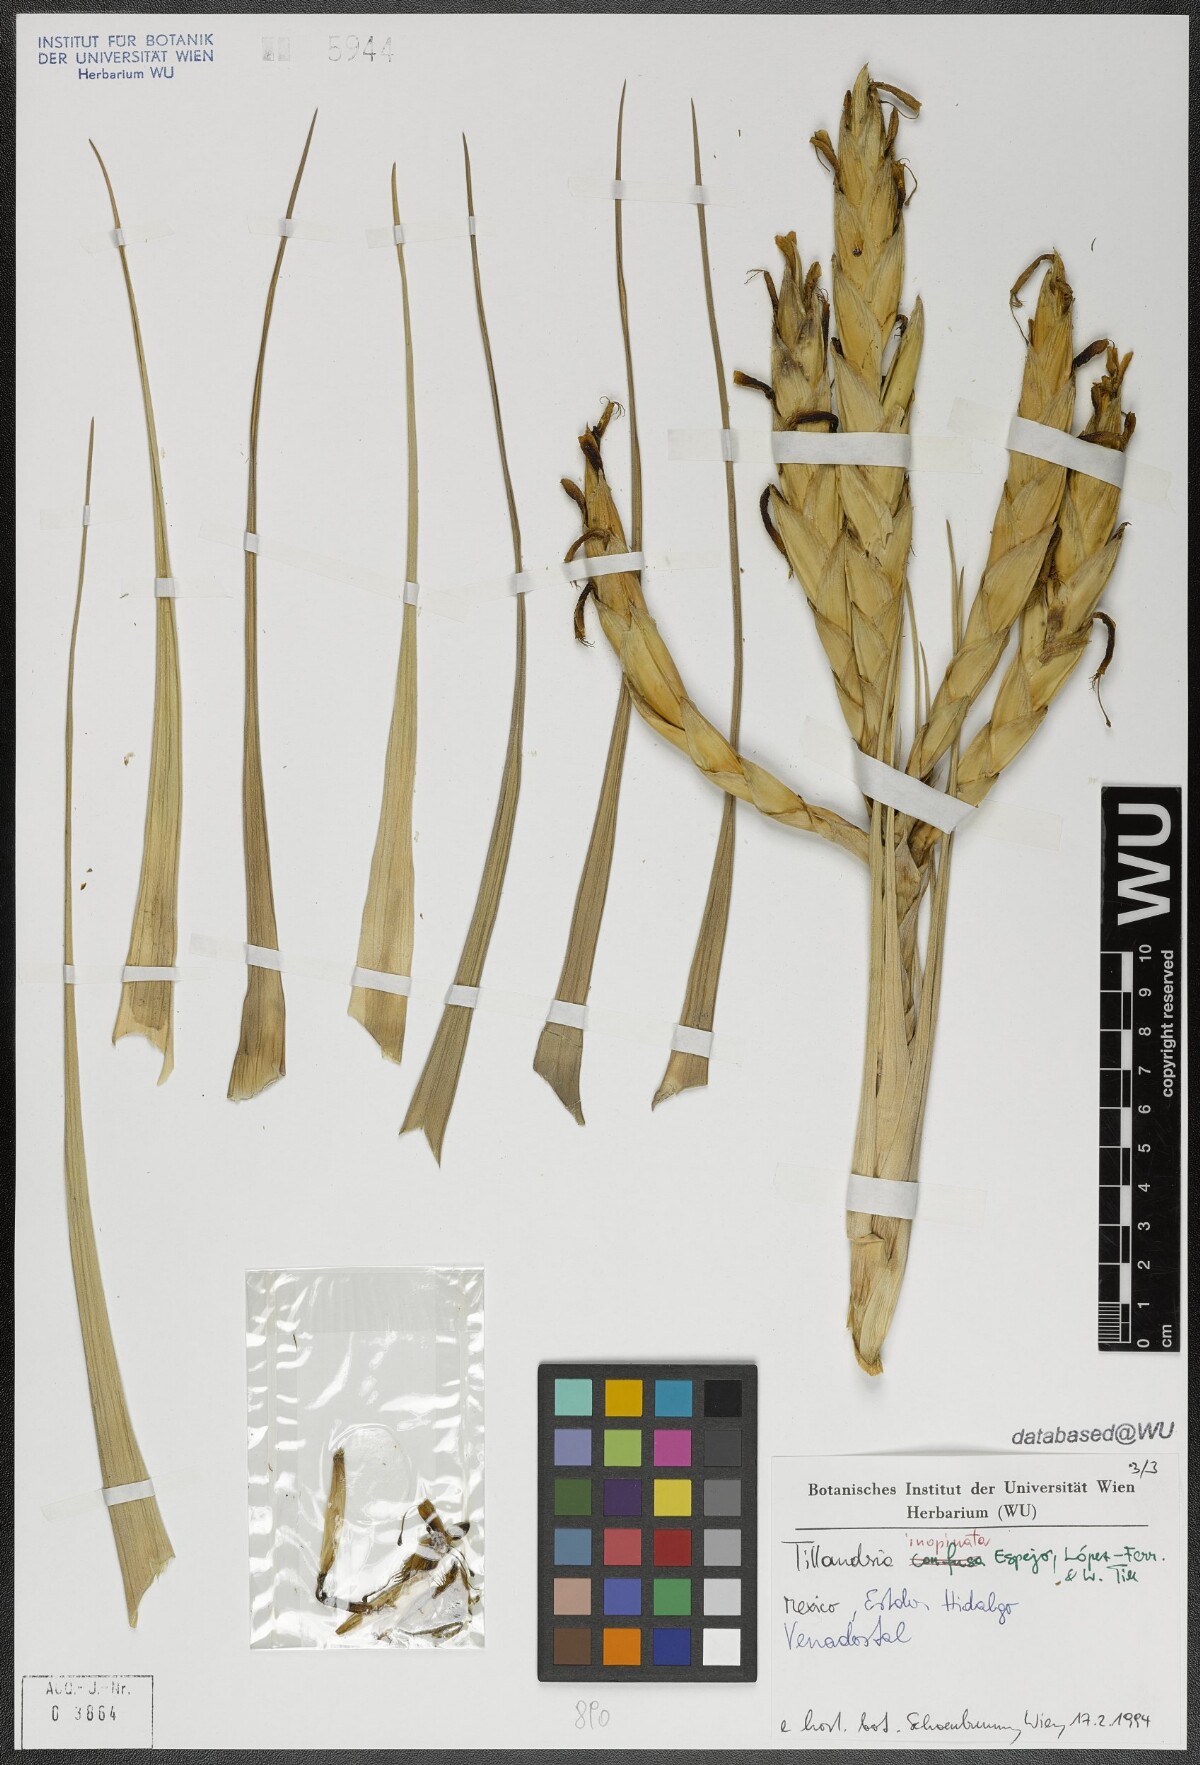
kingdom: Plantae
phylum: Tracheophyta
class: Liliopsida
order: Poales
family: Bromeliaceae
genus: Tillandsia
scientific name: Tillandsia inopinata
